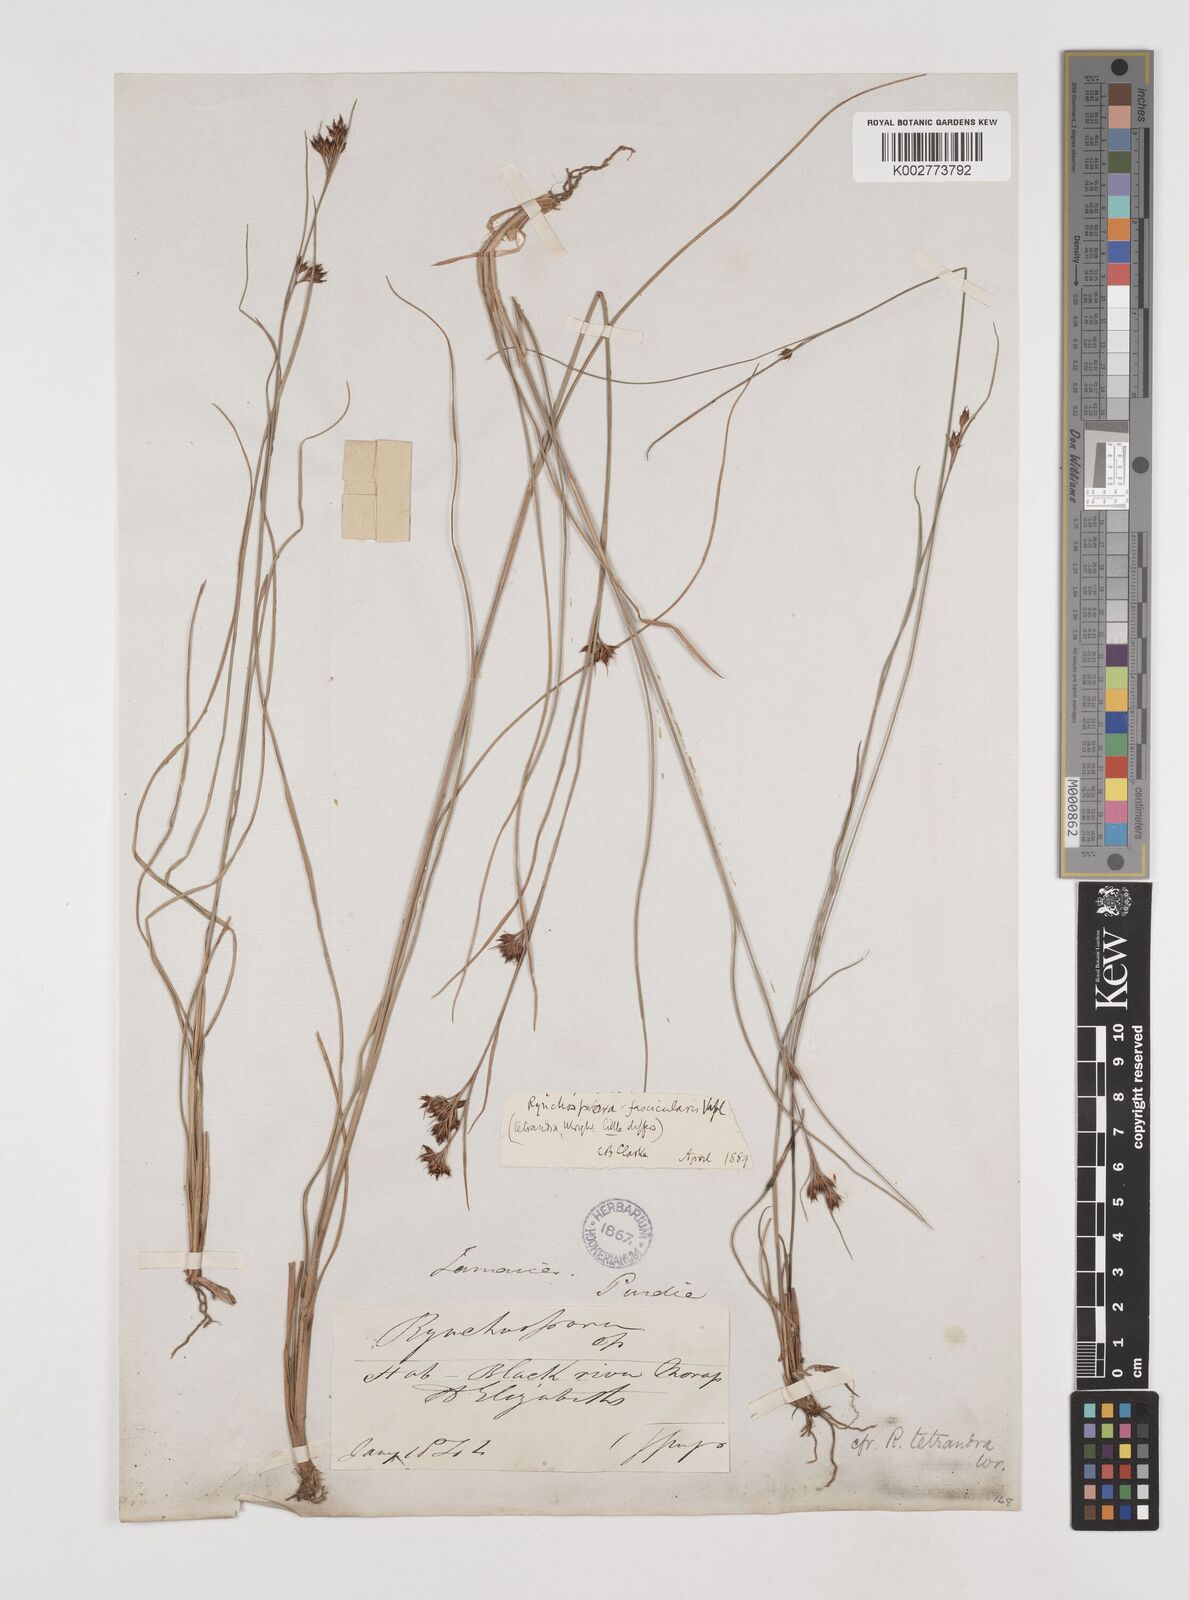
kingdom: Plantae
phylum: Tracheophyta
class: Liliopsida
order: Poales
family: Cyperaceae
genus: Rhynchospora
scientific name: Rhynchospora fascicularis
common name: Fascicled beak sedge
